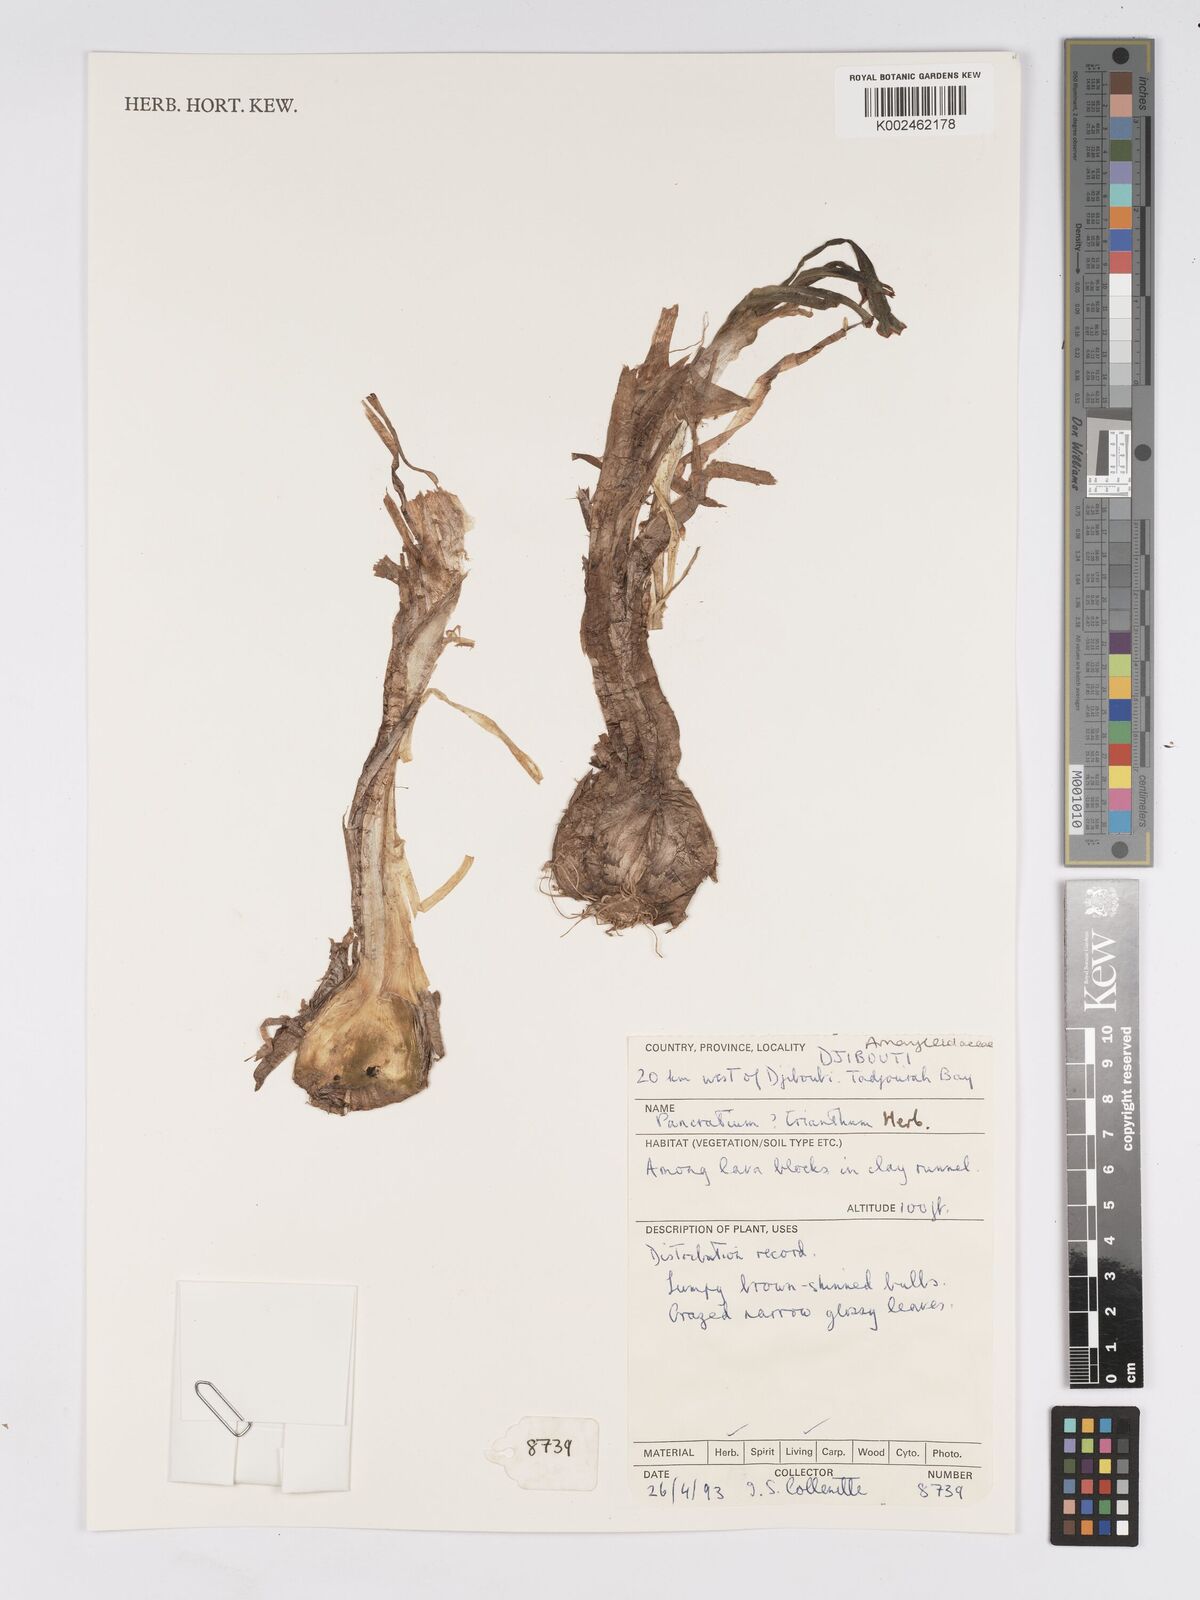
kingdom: Plantae
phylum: Tracheophyta
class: Liliopsida
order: Asparagales
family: Amaryllidaceae
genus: Pancratium
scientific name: Pancratium trianthum
